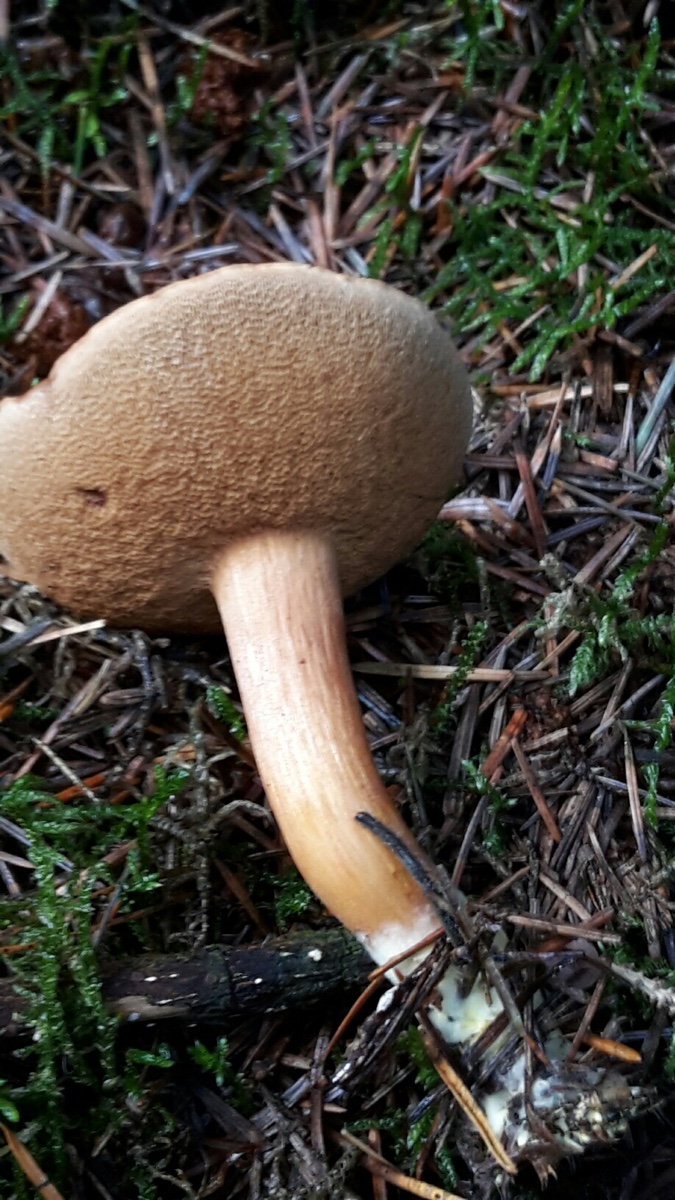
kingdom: Fungi
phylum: Basidiomycota
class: Agaricomycetes
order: Boletales
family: Boletaceae
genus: Chalciporus
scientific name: Chalciporus piperatus
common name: peberrørhat
